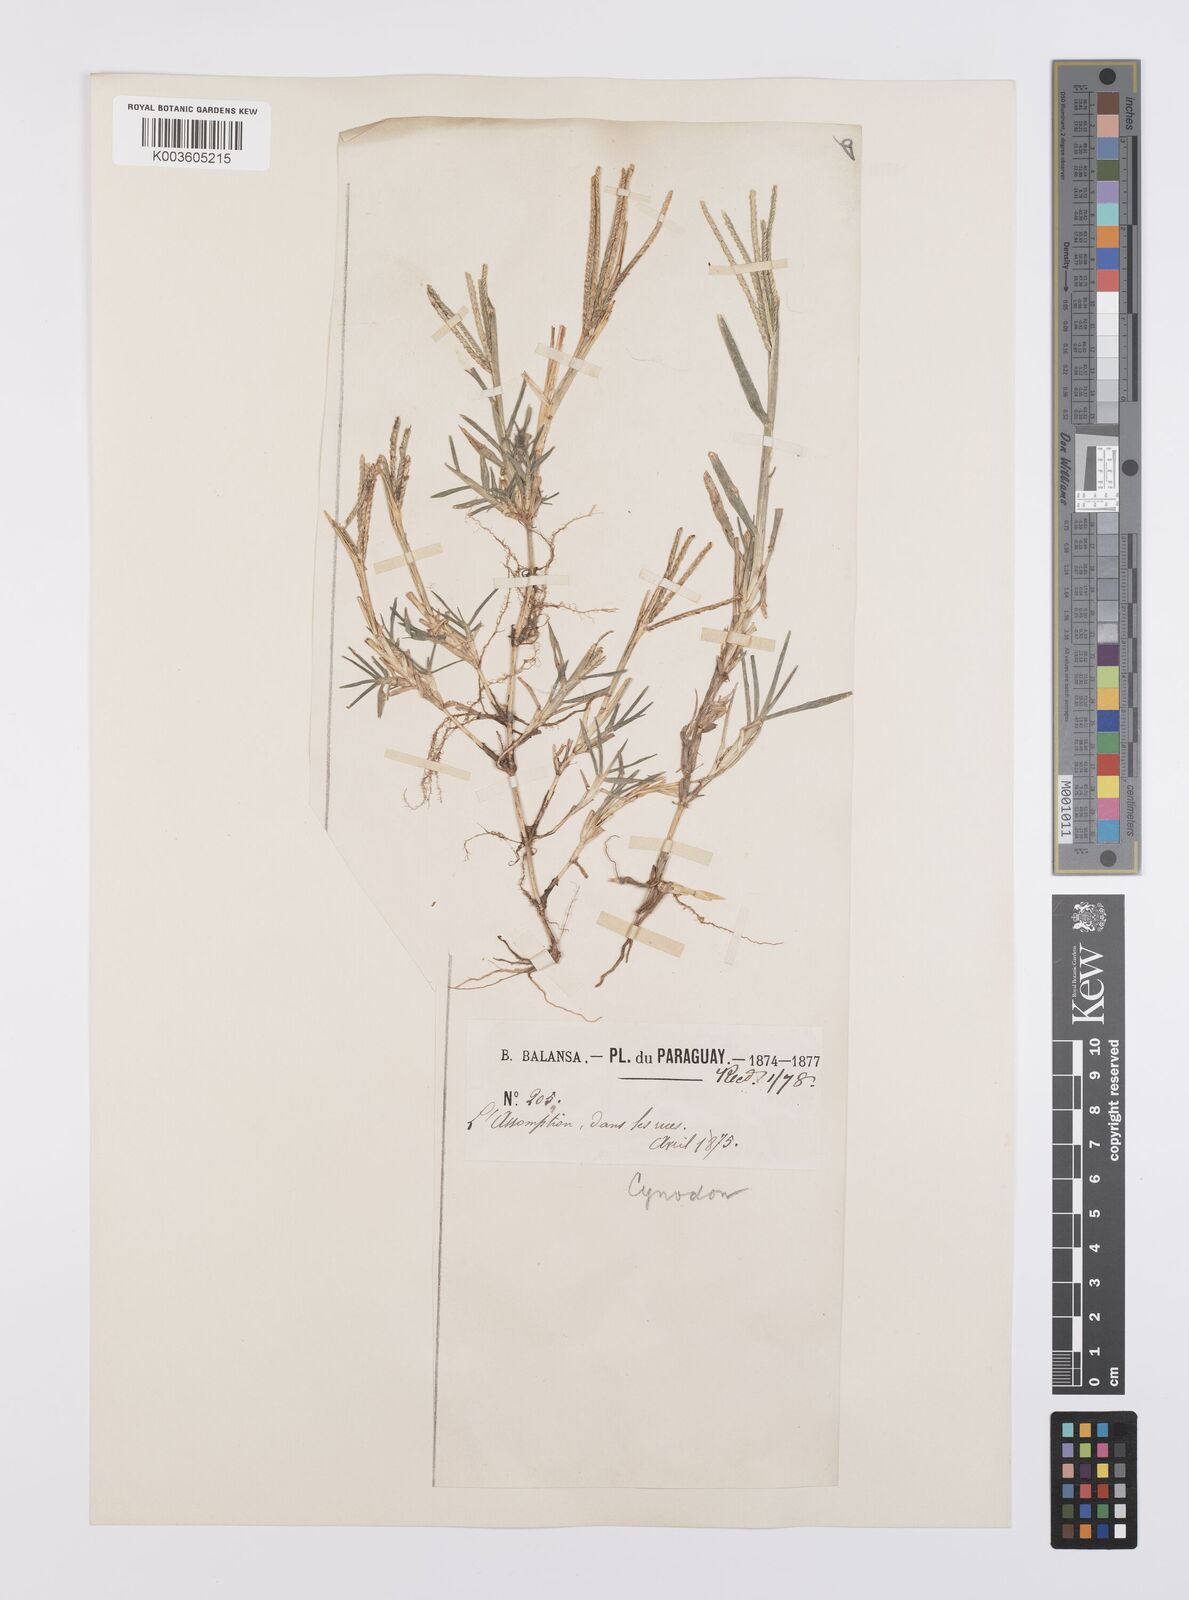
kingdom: Plantae
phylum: Tracheophyta
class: Liliopsida
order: Poales
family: Poaceae
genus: Cynodon
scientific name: Cynodon dactylon
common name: Bermuda grass
